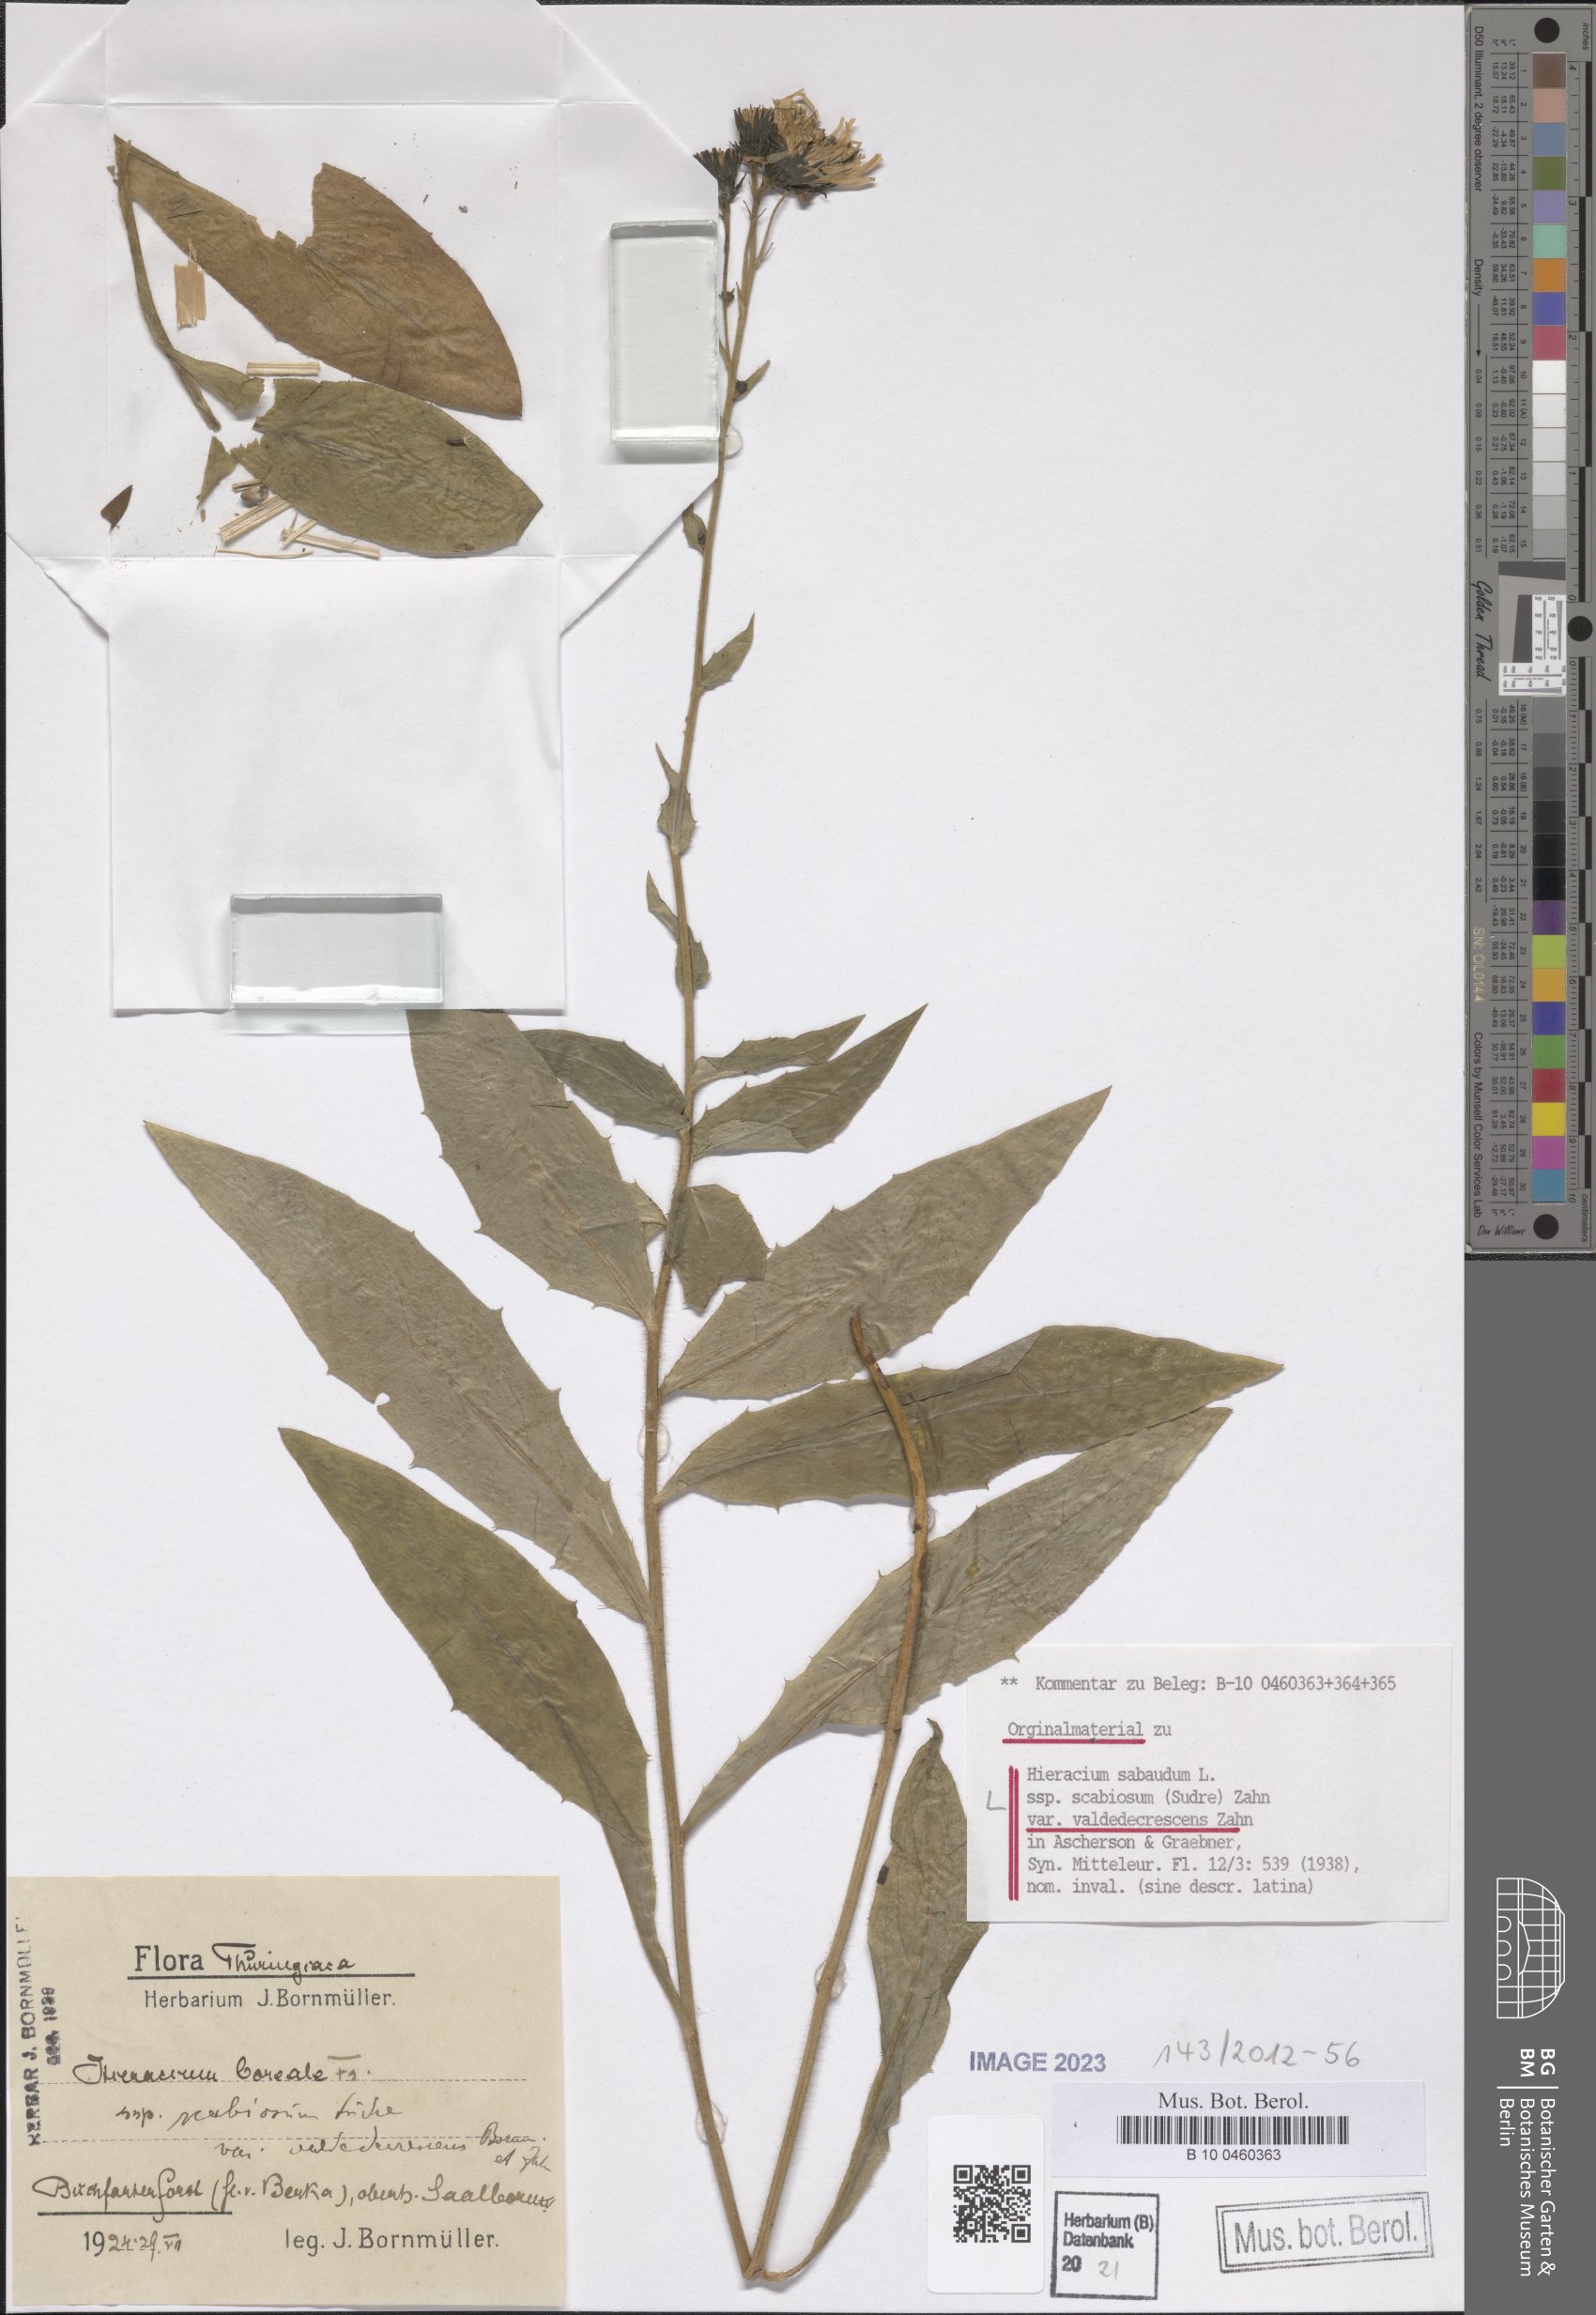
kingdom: Plantae
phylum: Tracheophyta
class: Magnoliopsida
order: Asterales
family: Asteraceae
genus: Hieracium
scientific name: Hieracium sabaudum
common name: New england hawkweed
